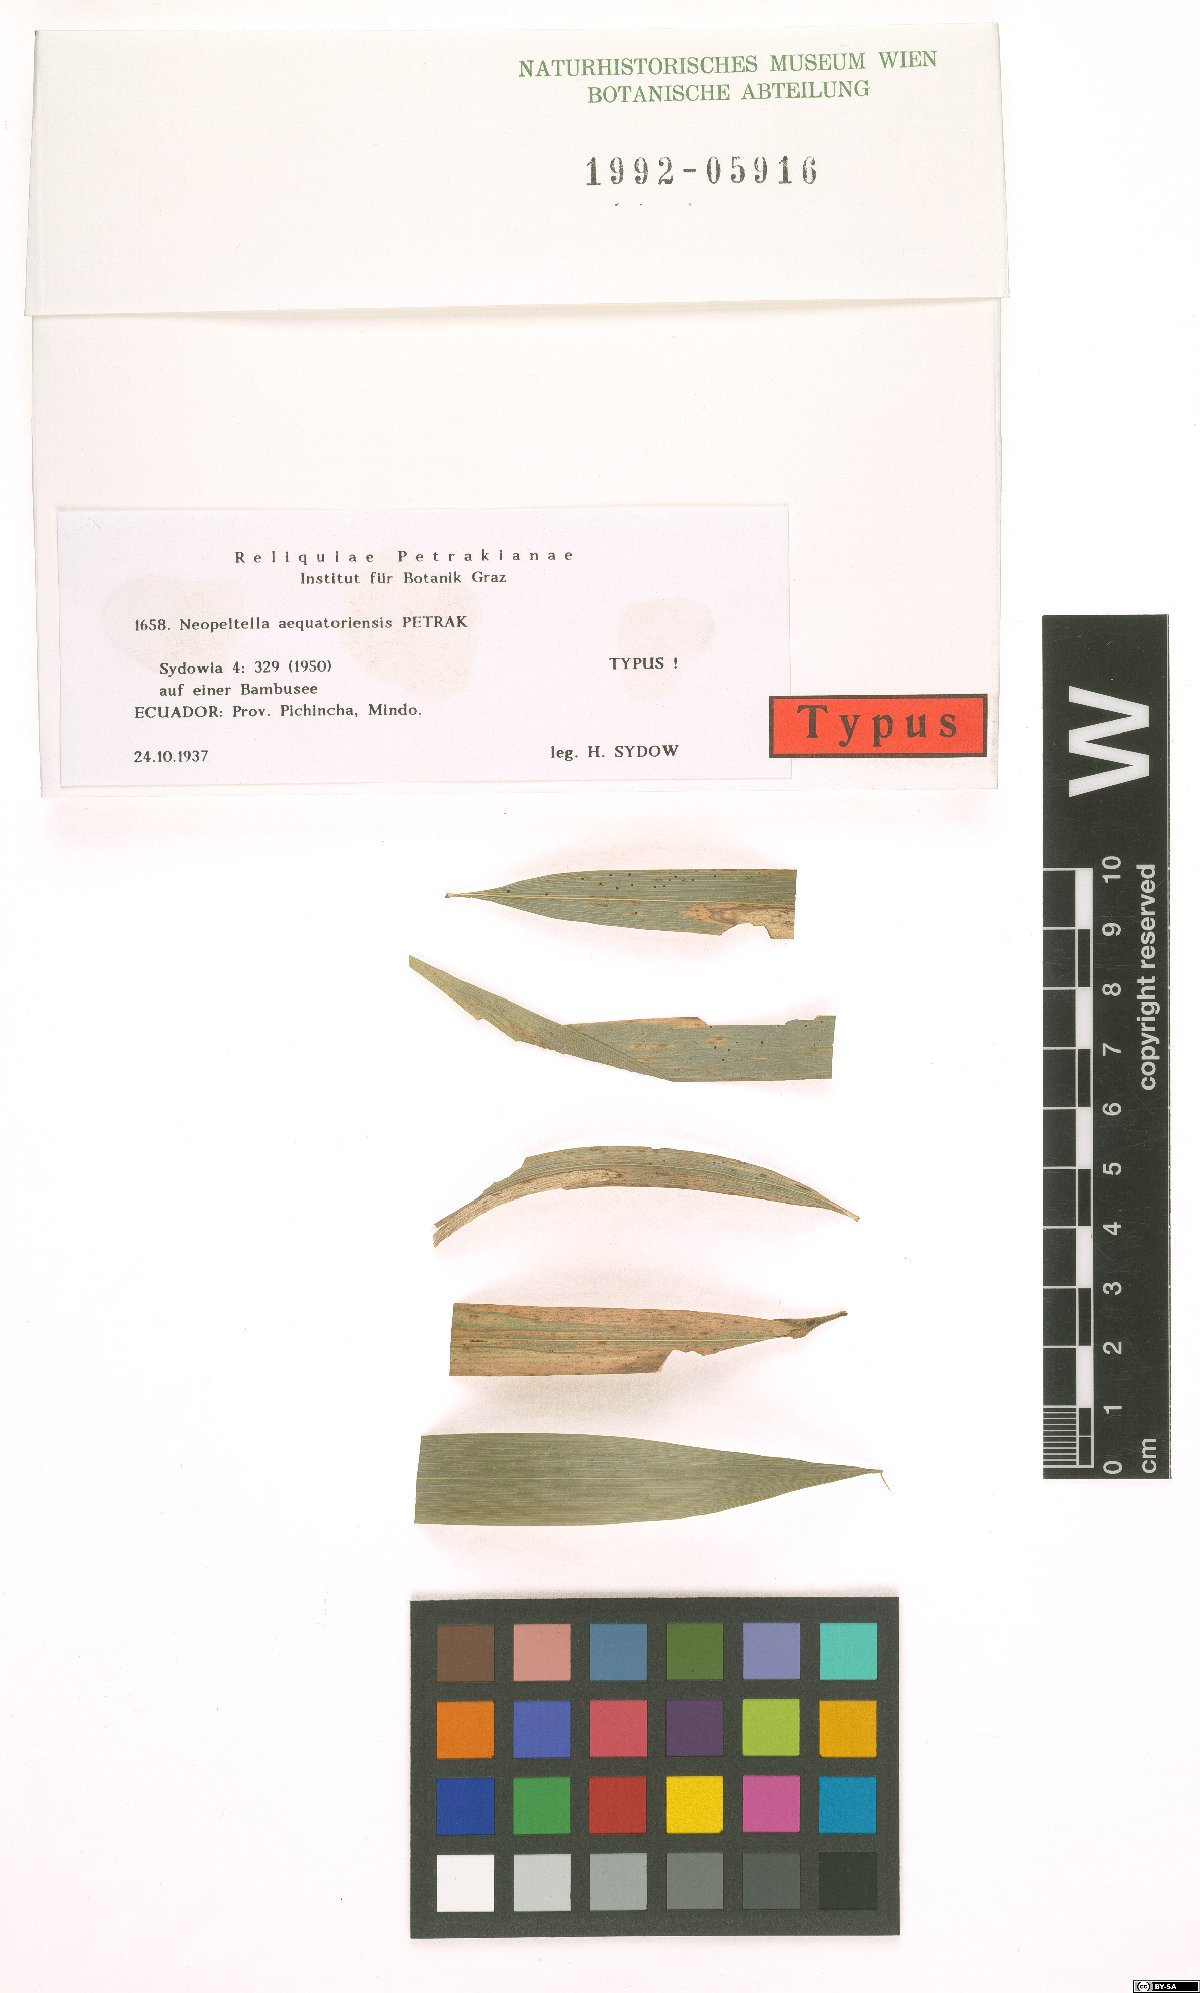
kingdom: Fungi
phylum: Ascomycota
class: Dothideomycetes
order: Mycosphaerellales
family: Schizothyriaceae
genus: Neopeltella
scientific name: Neopeltella aequatoriensis
